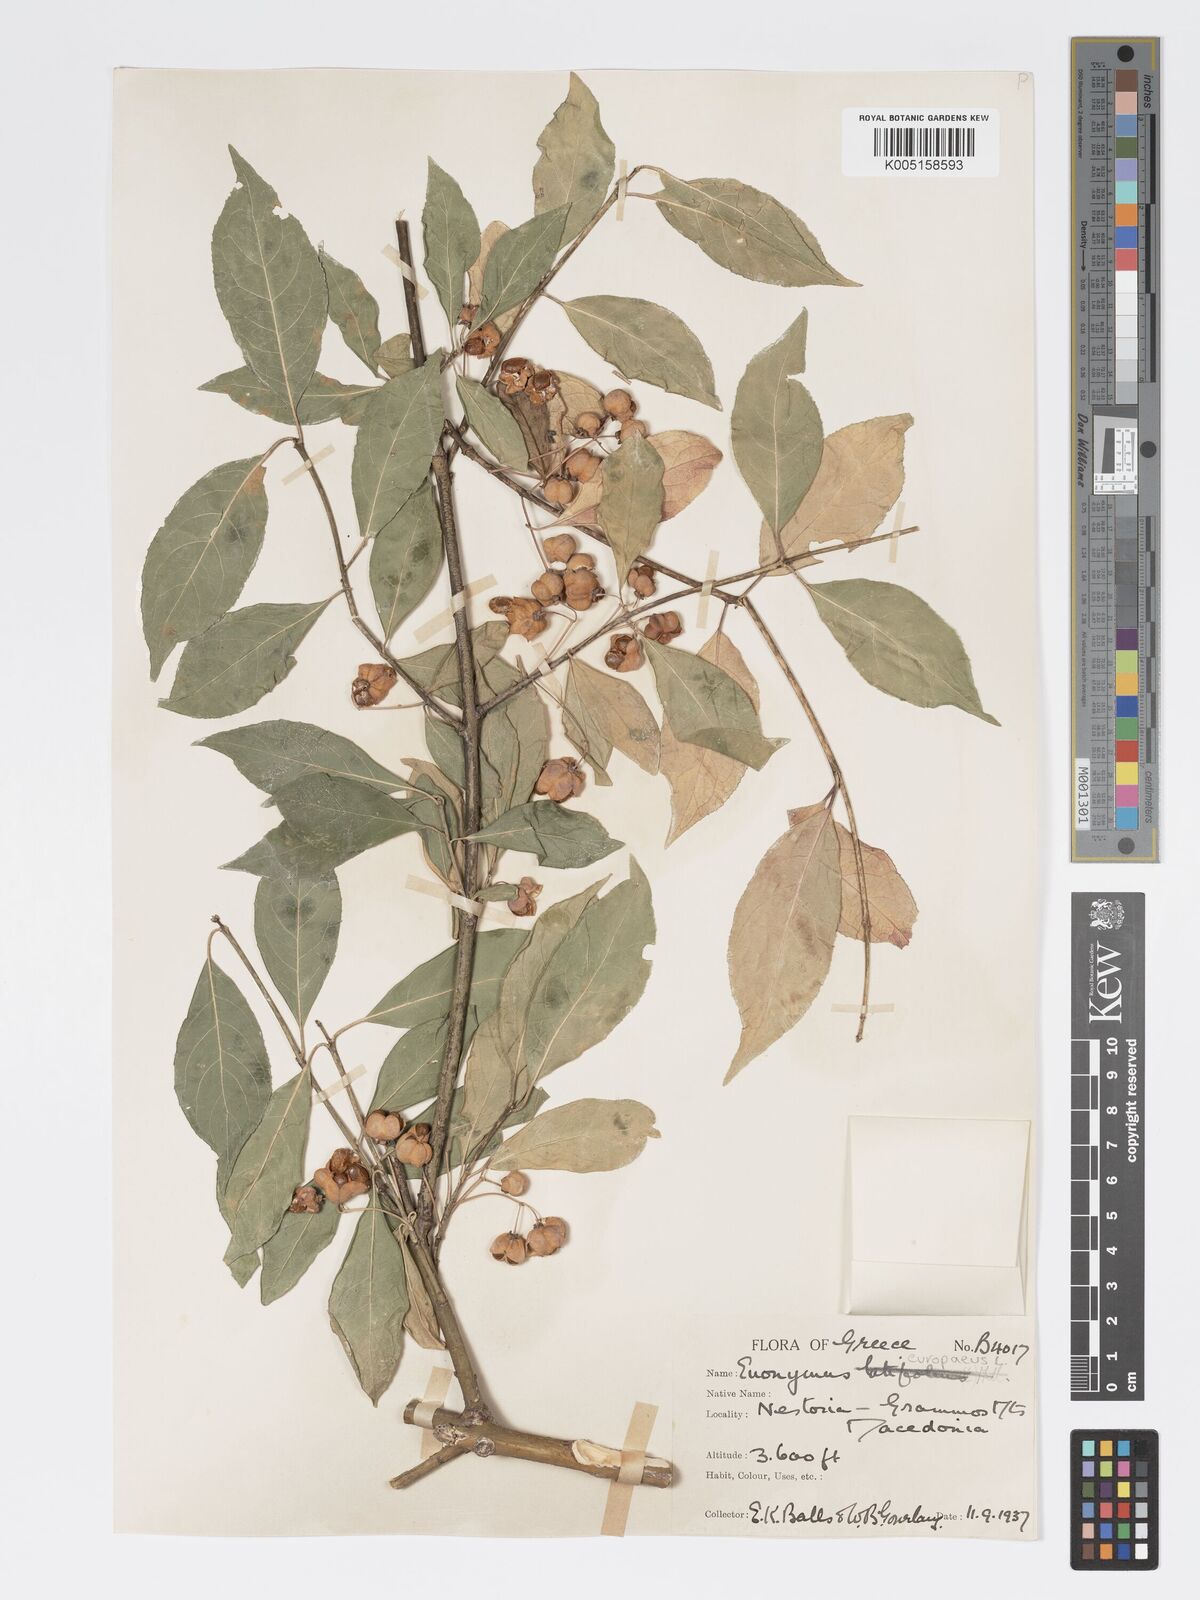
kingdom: Plantae
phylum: Tracheophyta
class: Magnoliopsida
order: Celastrales
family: Celastraceae
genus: Euonymus
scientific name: Euonymus europaeus
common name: Spindle
